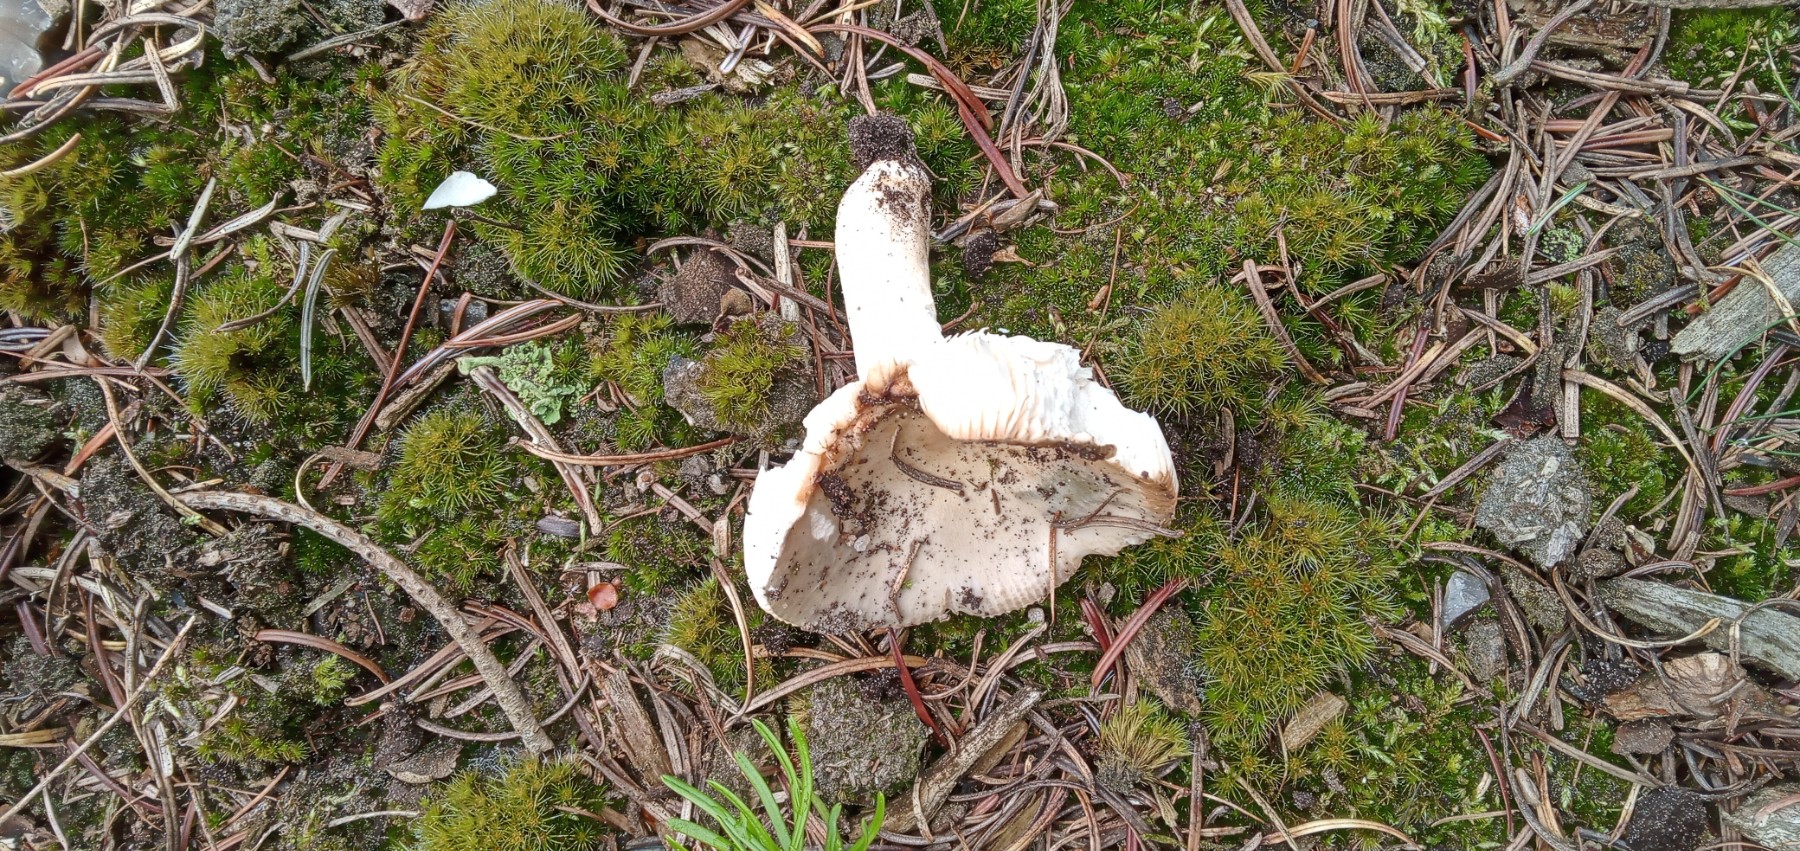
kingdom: Fungi
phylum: Basidiomycota
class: Agaricomycetes
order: Russulales
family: Russulaceae
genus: Russula
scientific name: Russula ochroleuca
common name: okkergul skørhat
